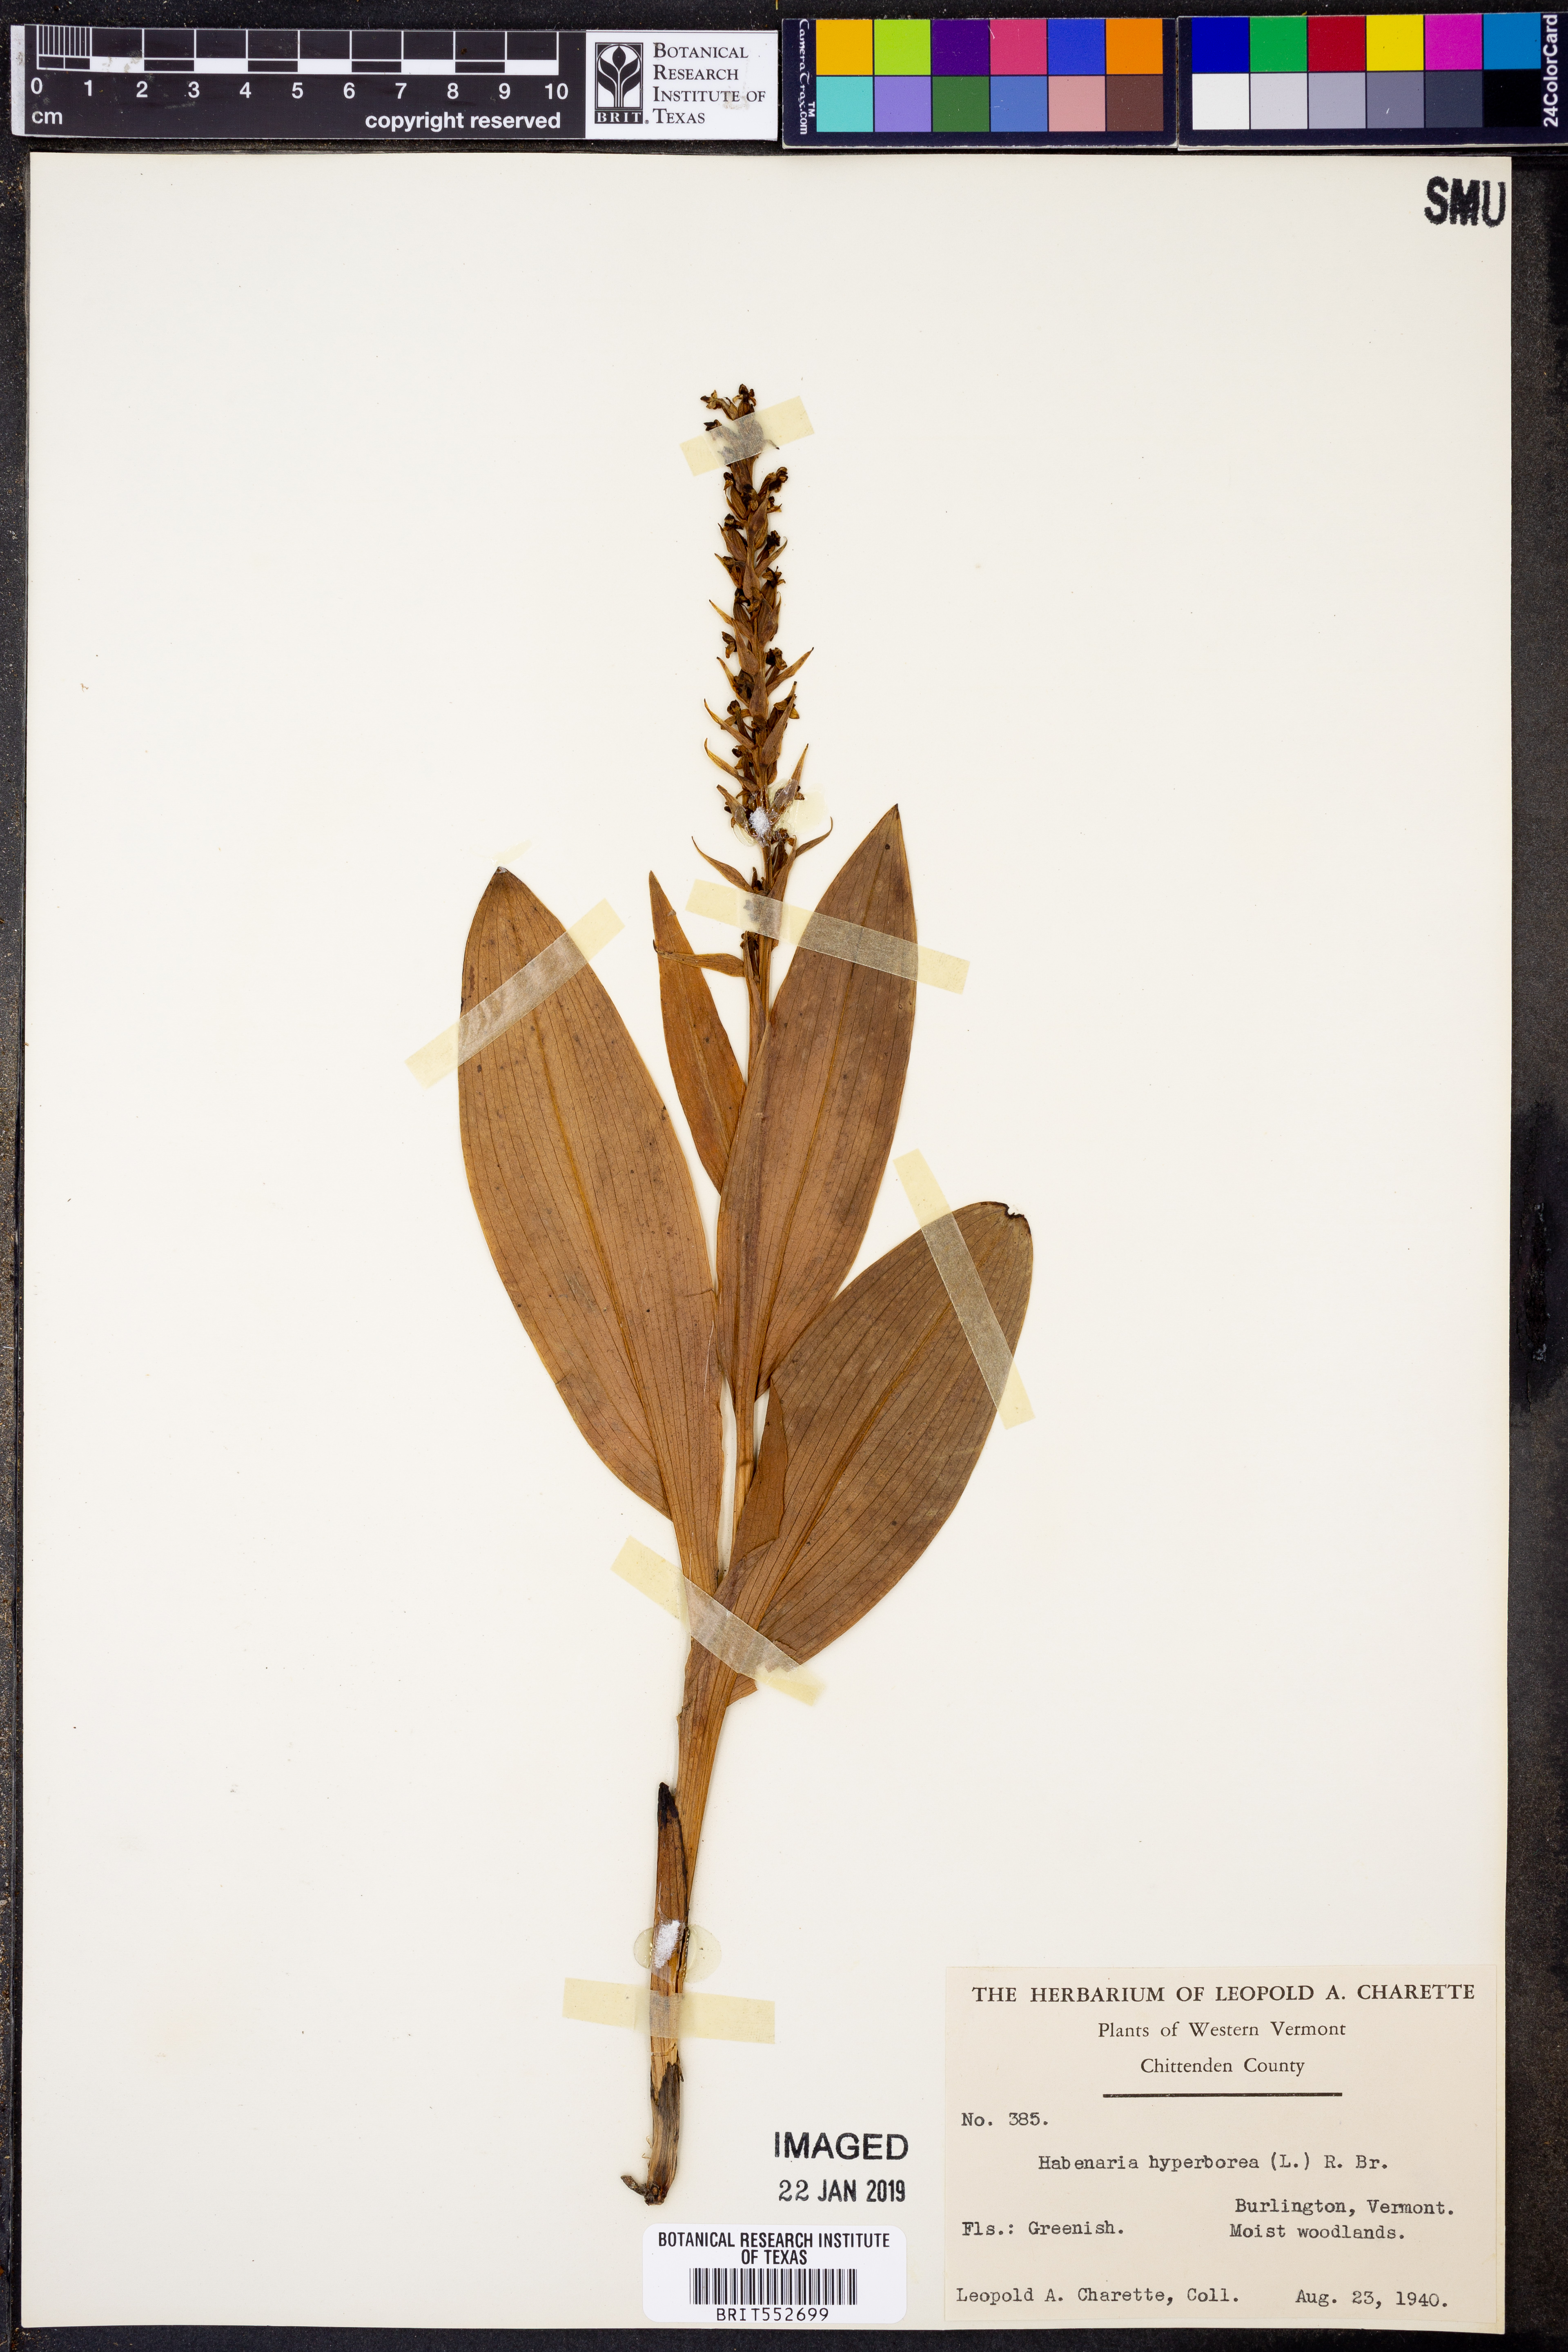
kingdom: Plantae
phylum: Tracheophyta
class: Liliopsida
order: Asparagales
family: Orchidaceae
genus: Platanthera
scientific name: Platanthera hyperborea
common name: Northern green orchid
